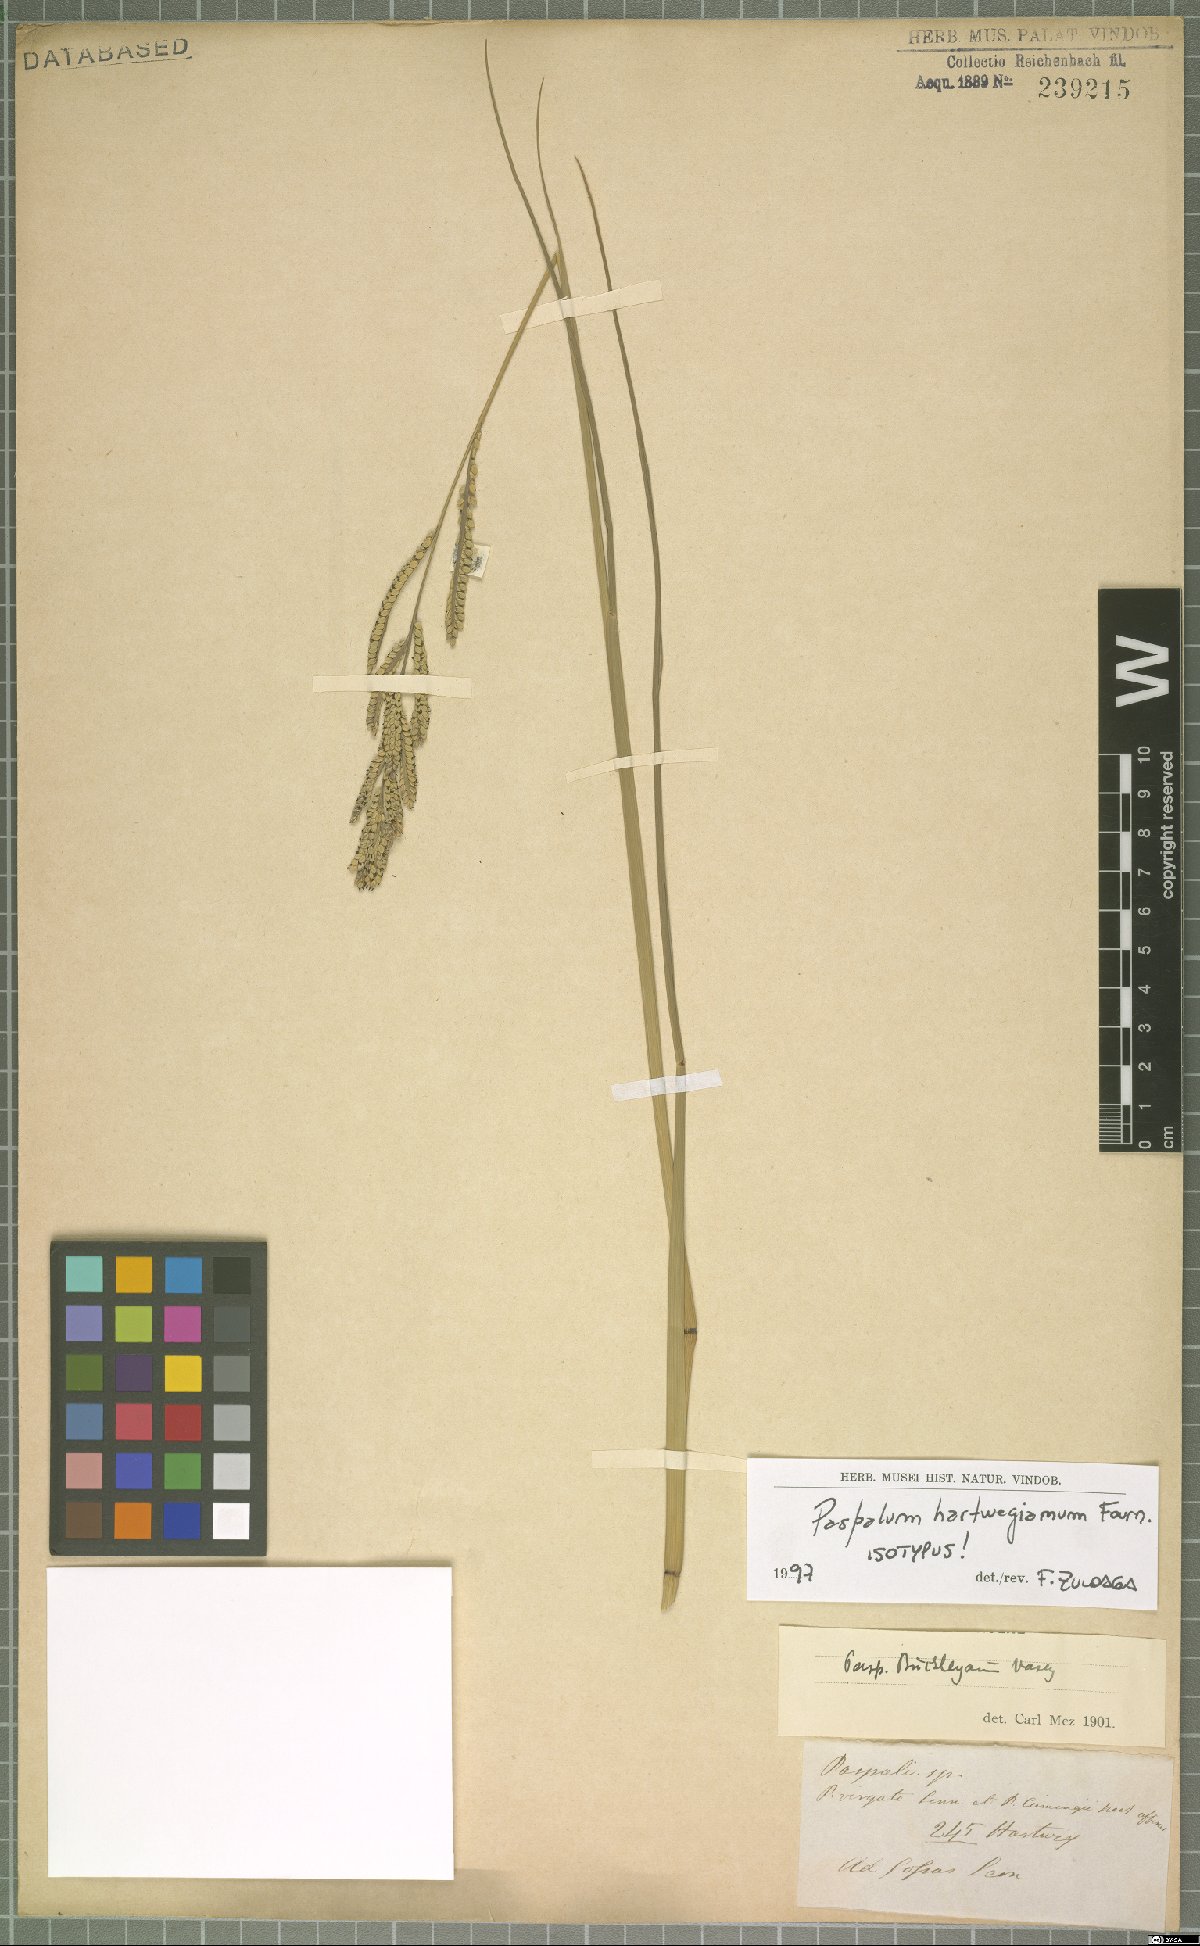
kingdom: Plantae
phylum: Tracheophyta
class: Liliopsida
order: Poales
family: Poaceae
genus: Paspalum
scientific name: Paspalum hartwegianum
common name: Hartweg's paspalum
